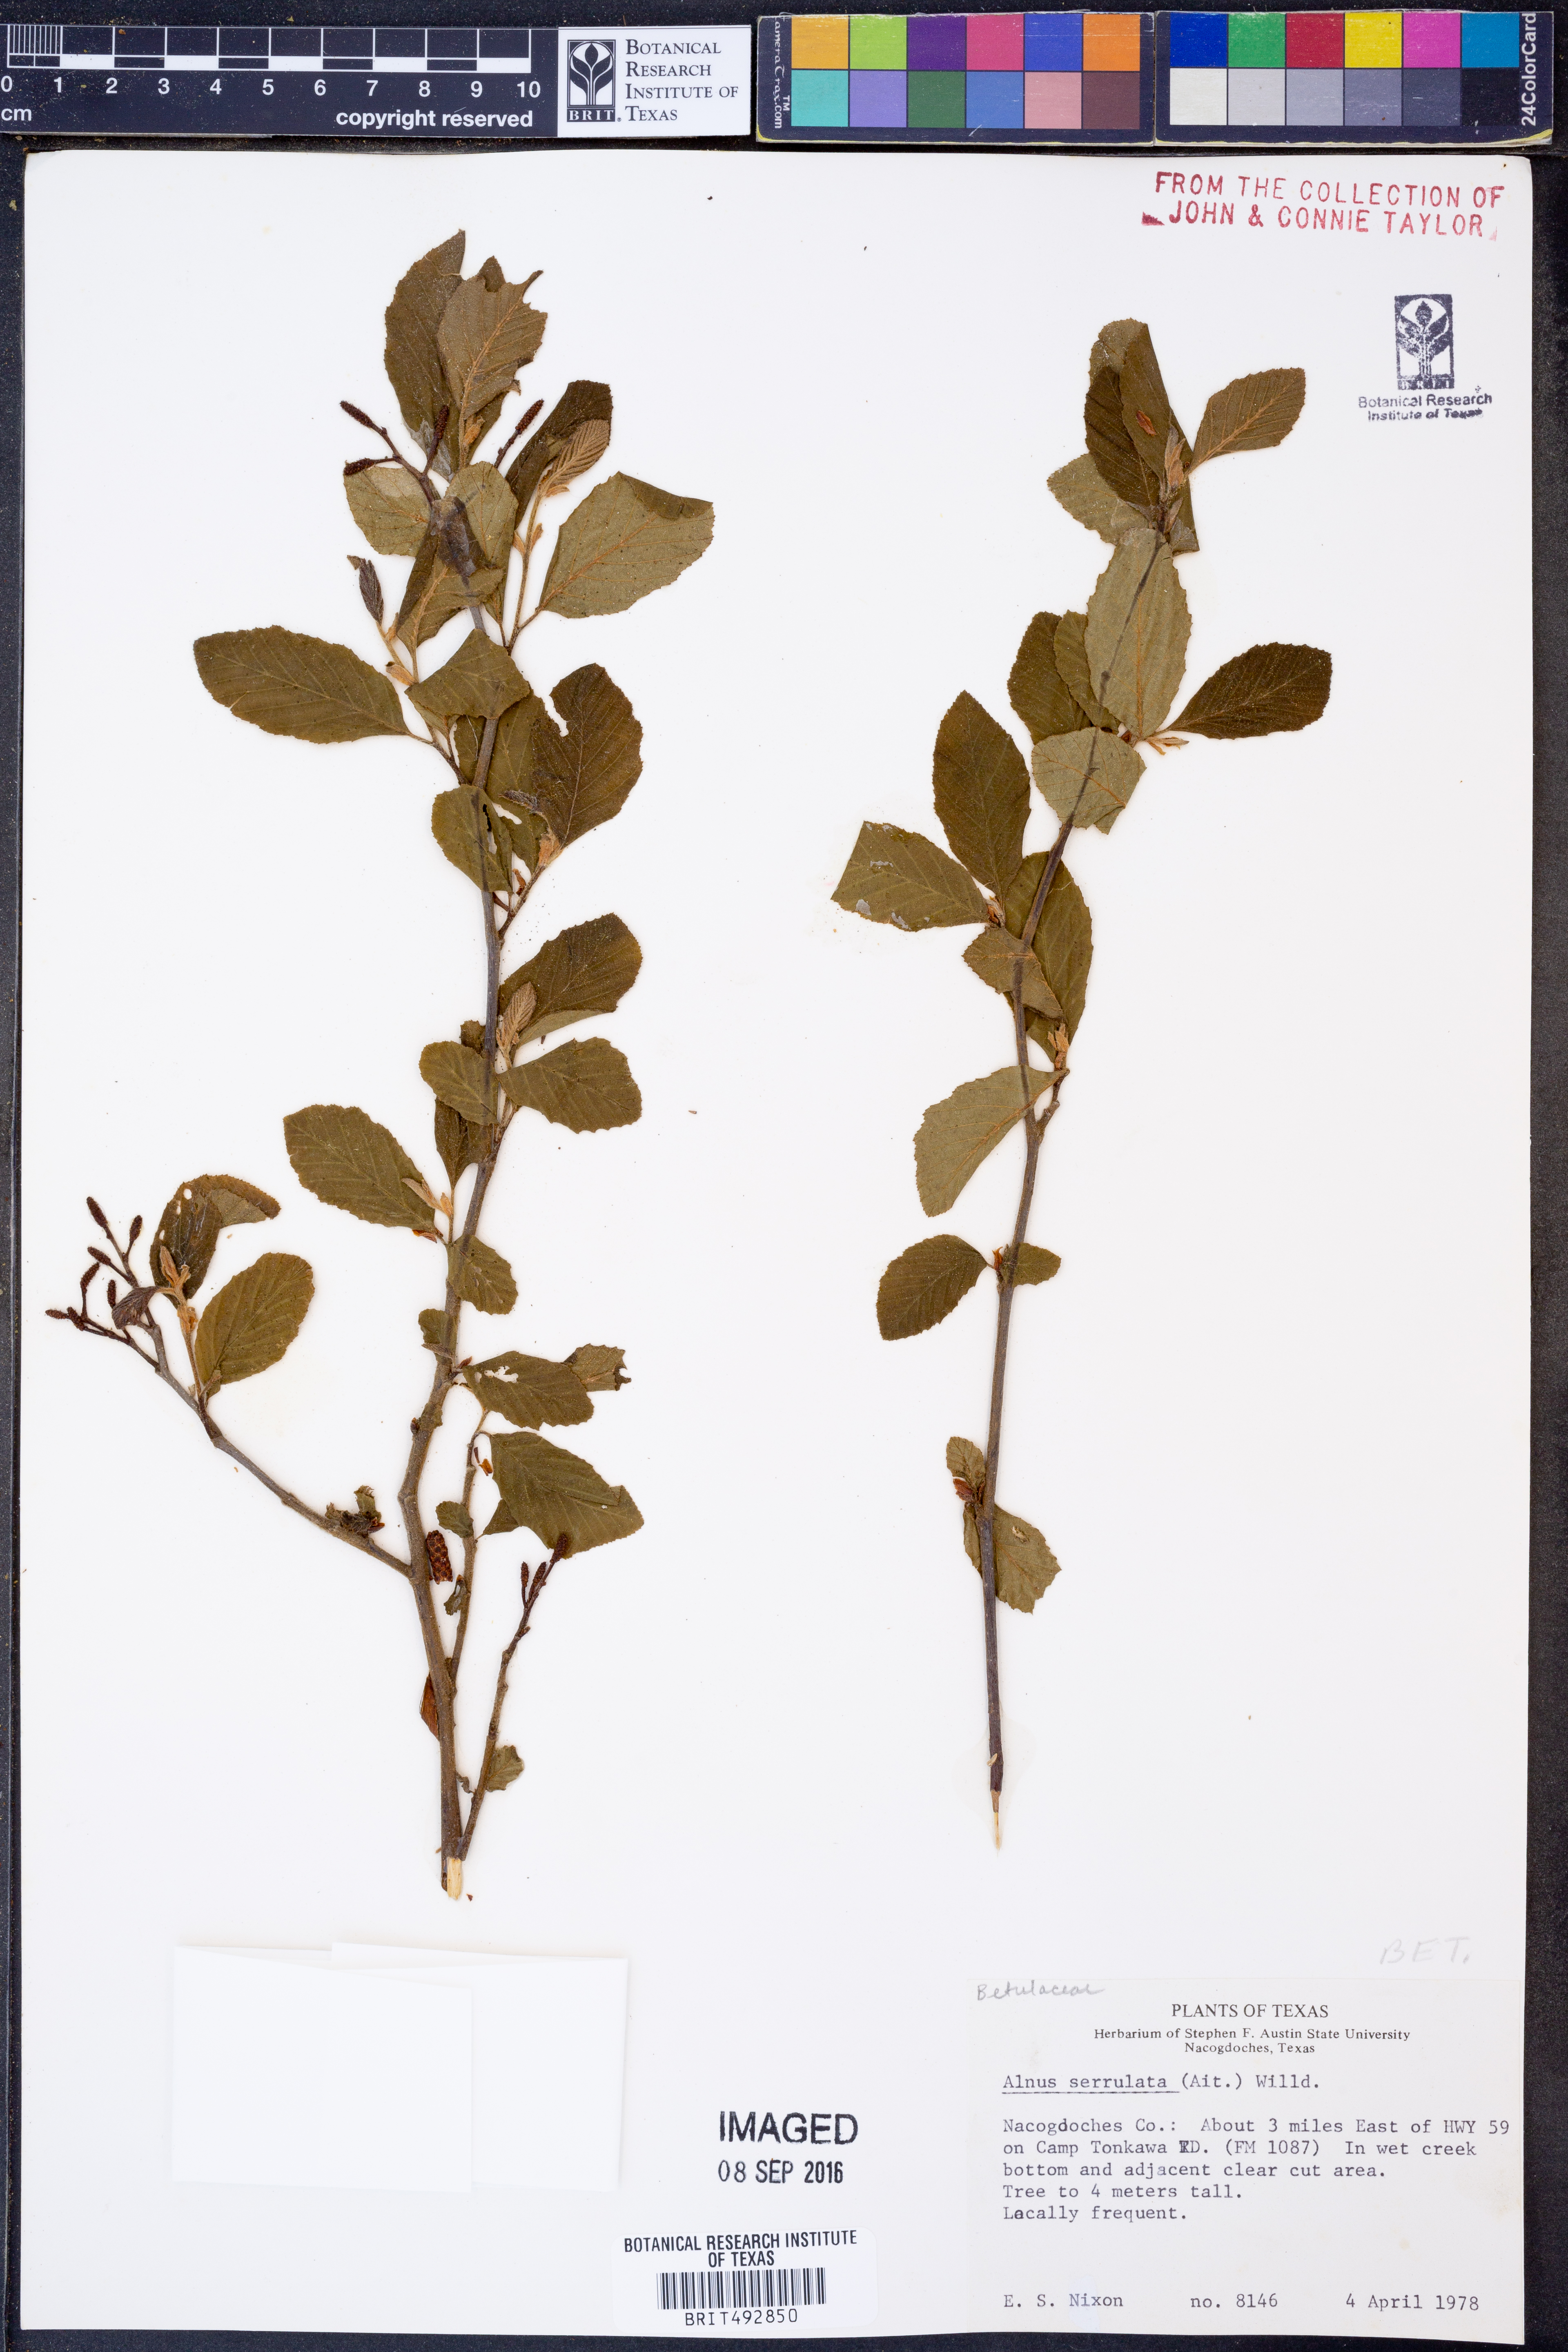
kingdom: Plantae
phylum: Tracheophyta
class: Magnoliopsida
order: Fagales
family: Betulaceae
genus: Alnus
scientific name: Alnus serrulata
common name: Hazel alder
